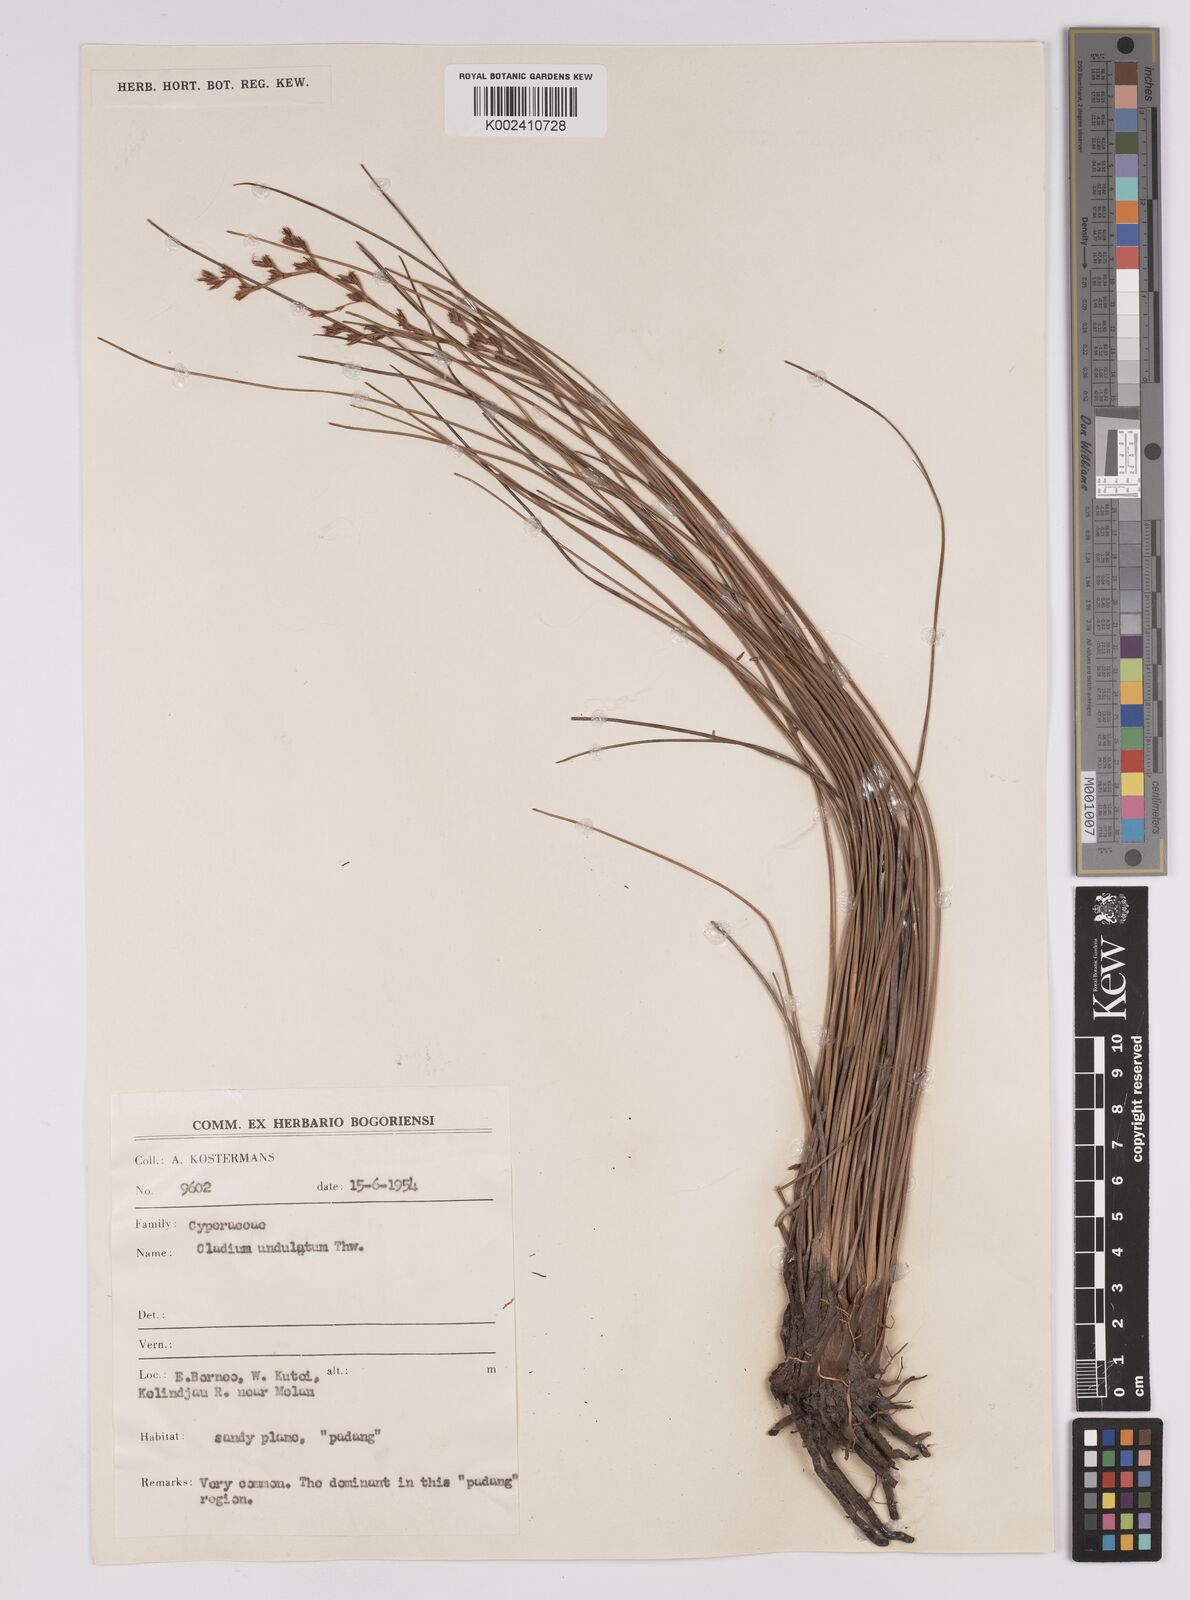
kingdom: Plantae
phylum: Tracheophyta
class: Liliopsida
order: Poales
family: Cyperaceae
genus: Anthelepis
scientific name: Anthelepis undulata
